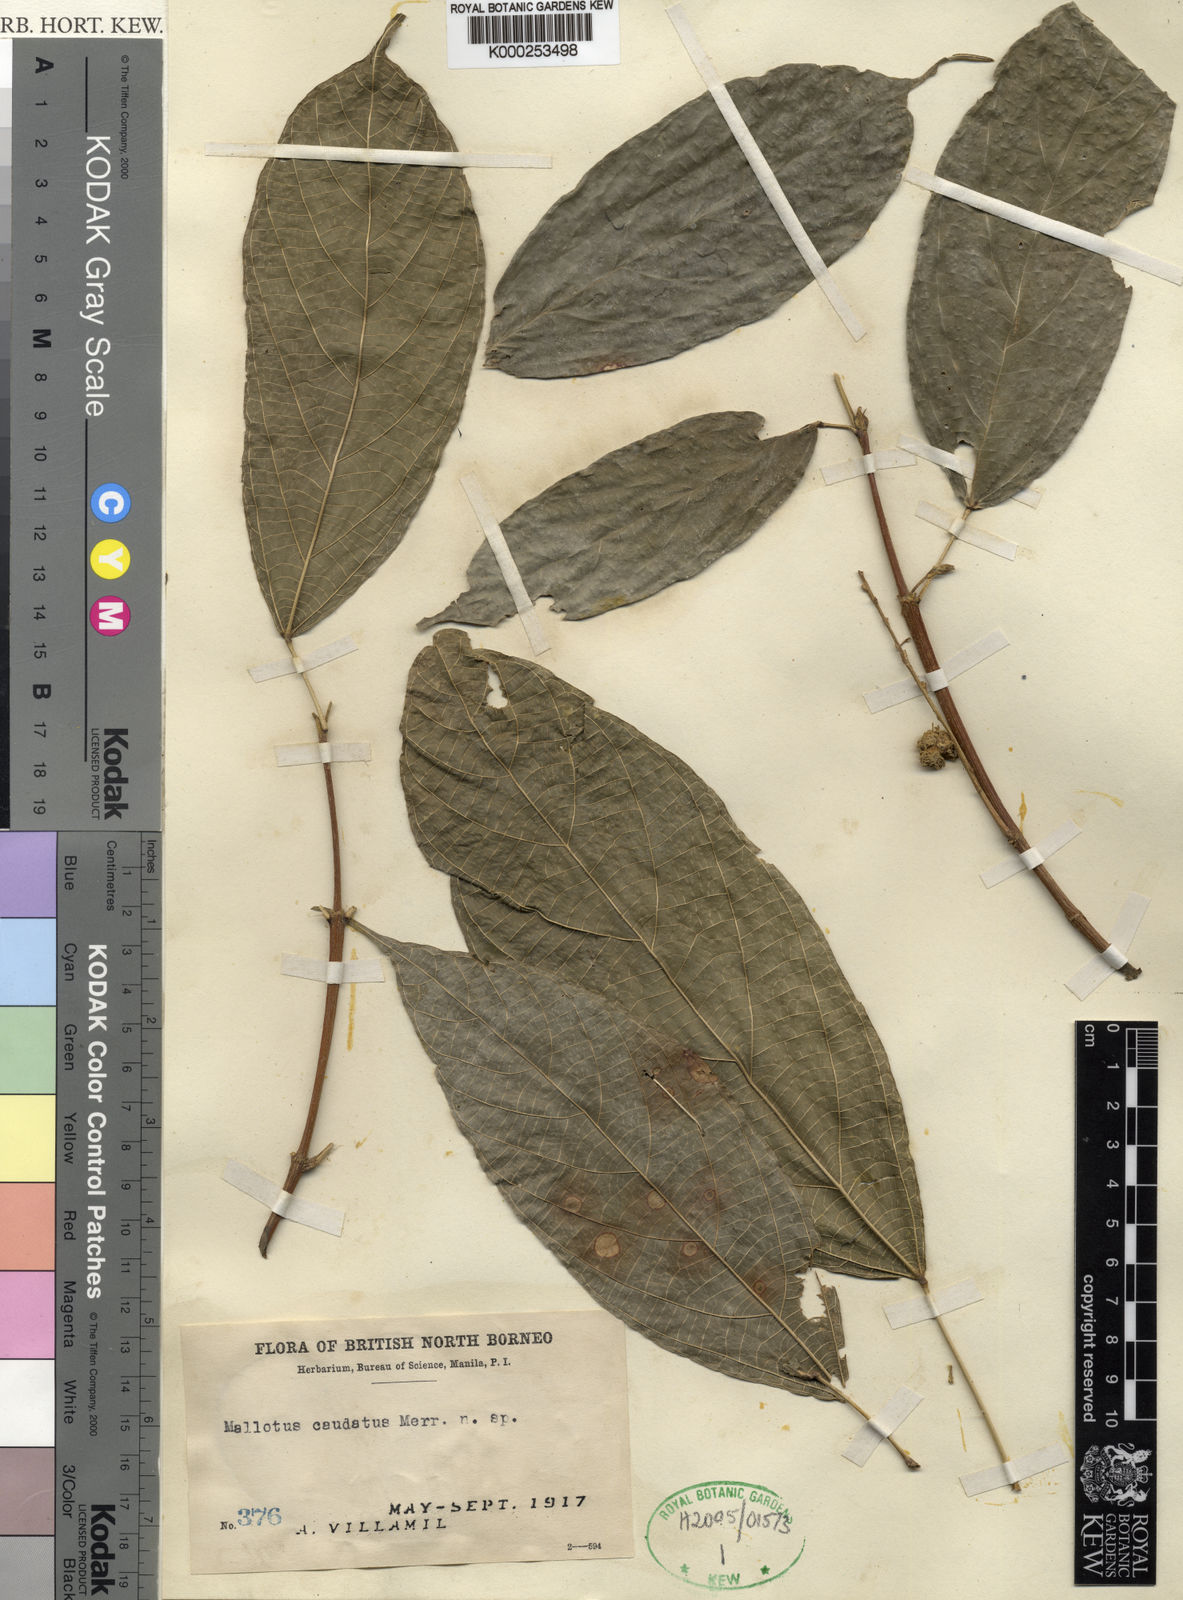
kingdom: Plantae
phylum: Tracheophyta
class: Magnoliopsida
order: Malpighiales
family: Euphorbiaceae
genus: Mallotus
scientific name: Mallotus caudatus
